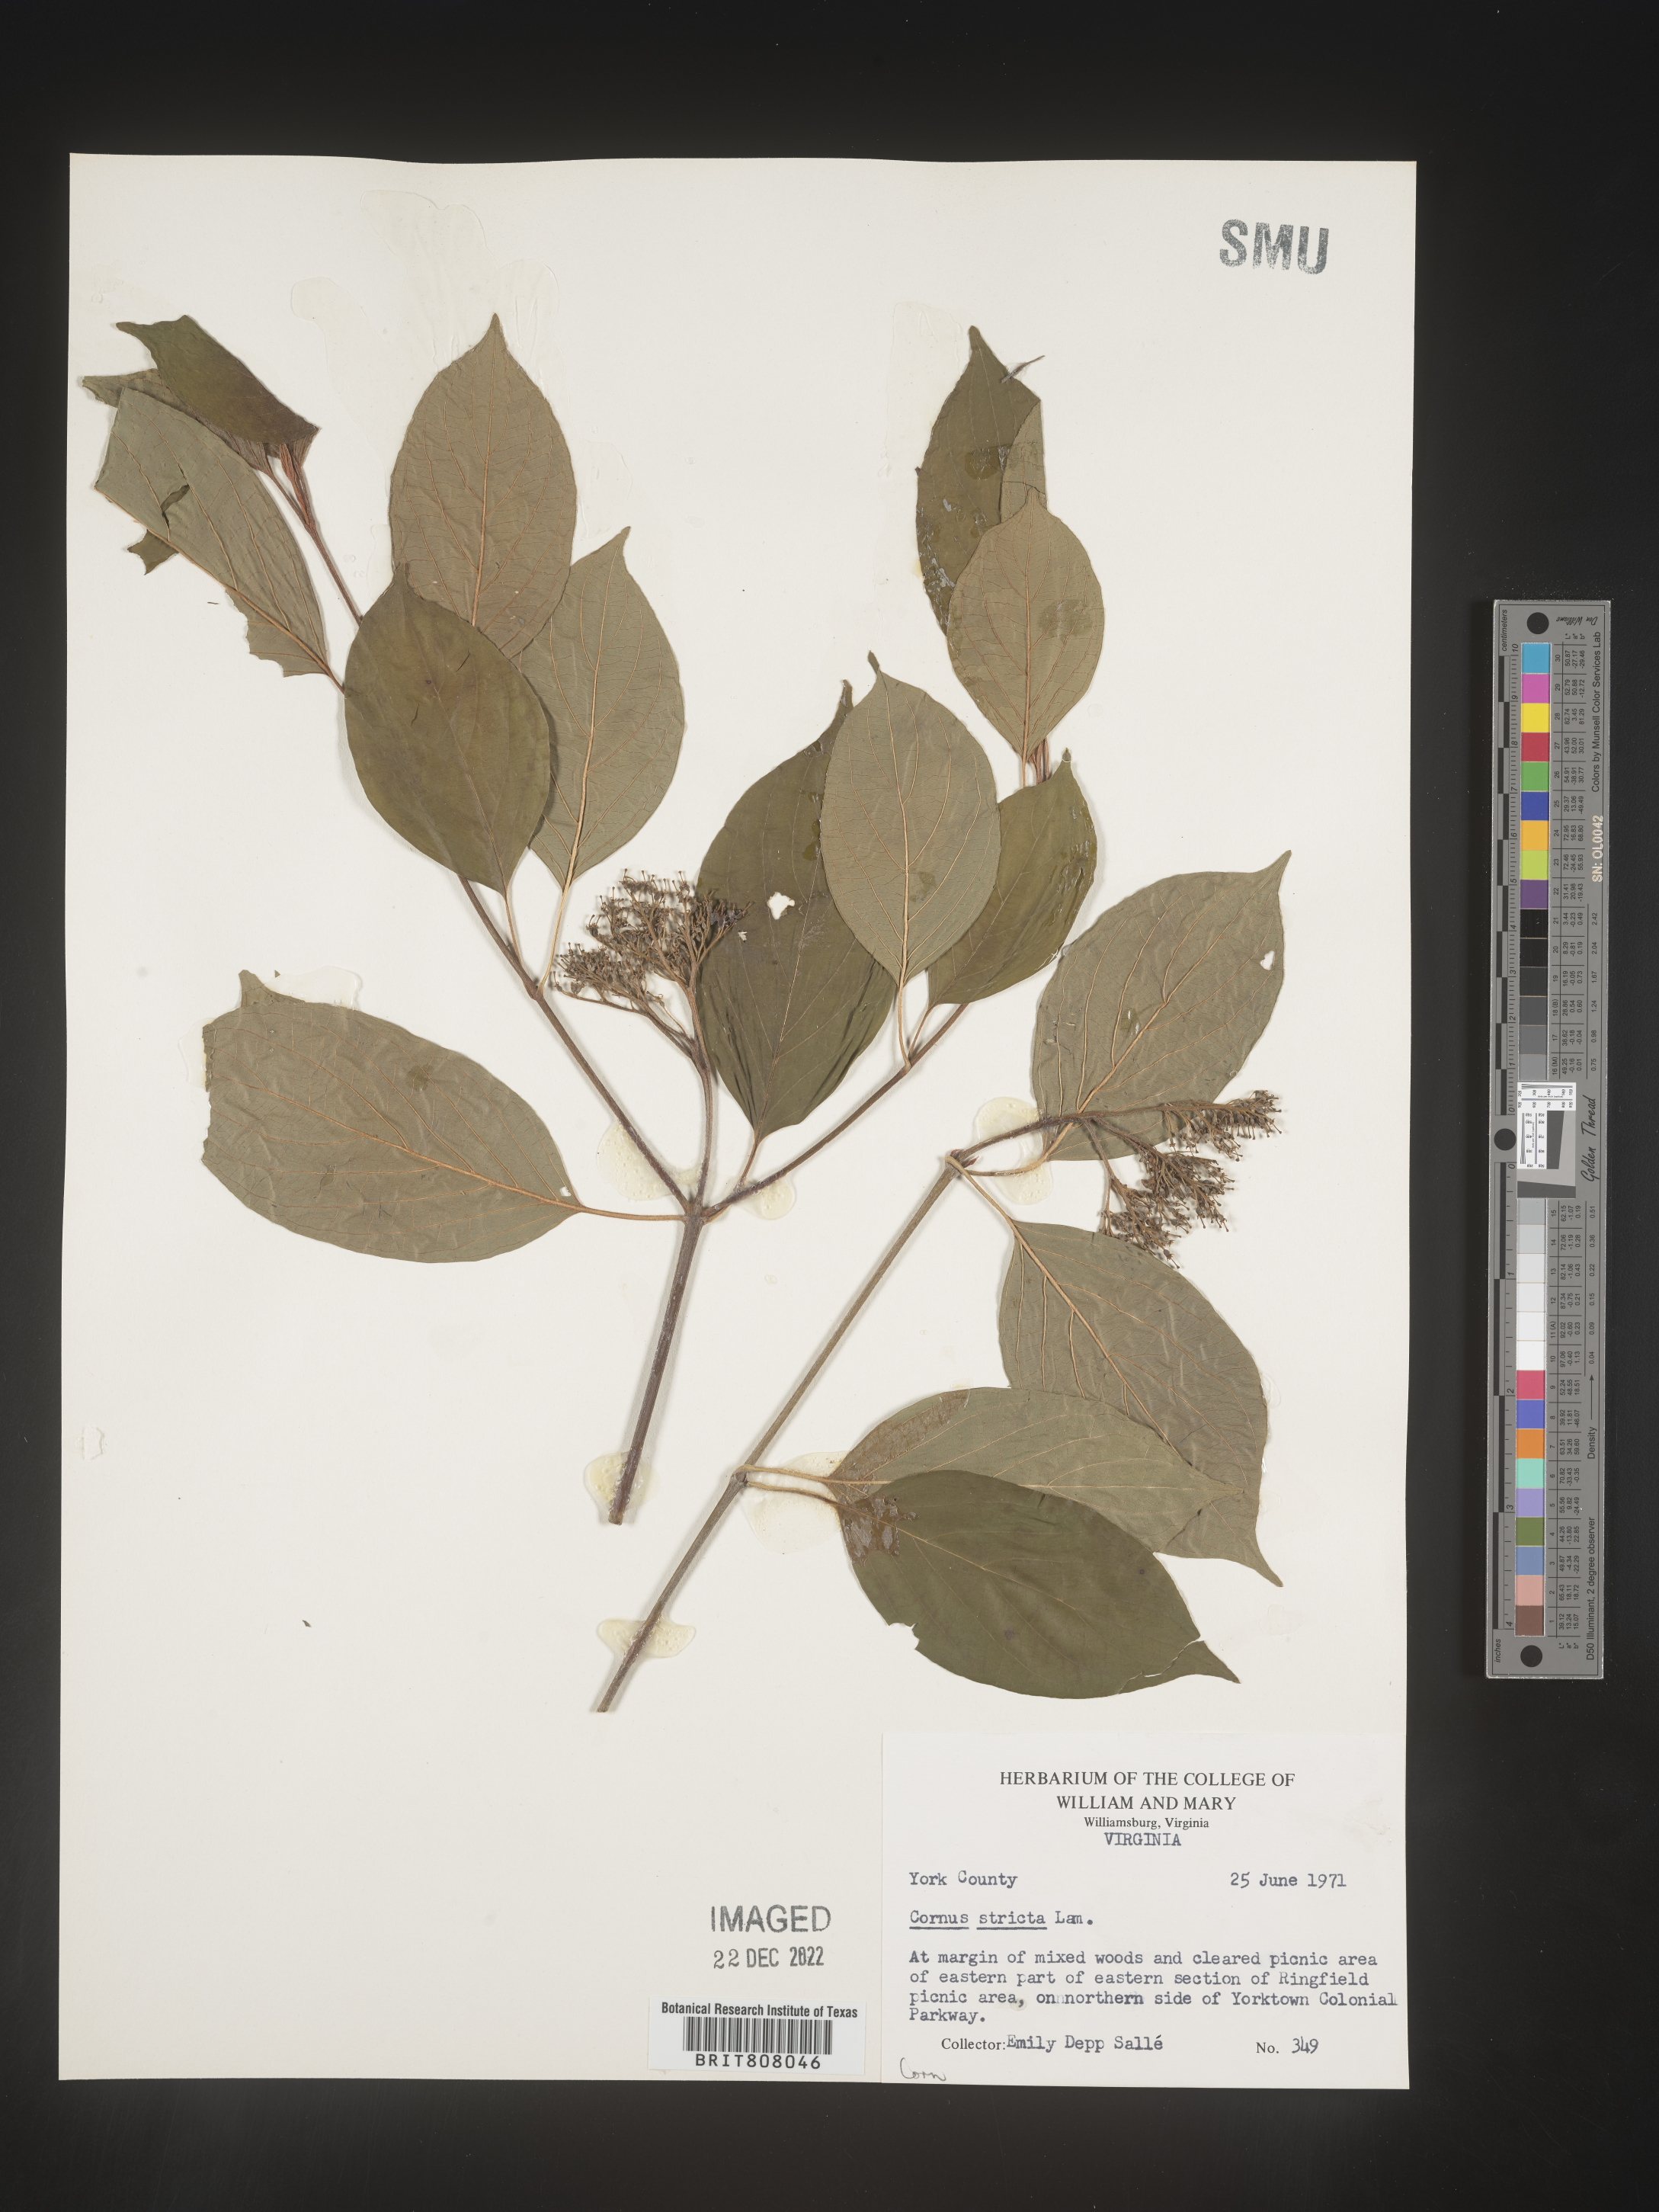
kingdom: Plantae
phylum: Tracheophyta
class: Magnoliopsida
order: Cornales
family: Cornaceae
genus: Cornus
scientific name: Cornus foemina
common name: Swamp dogwood
